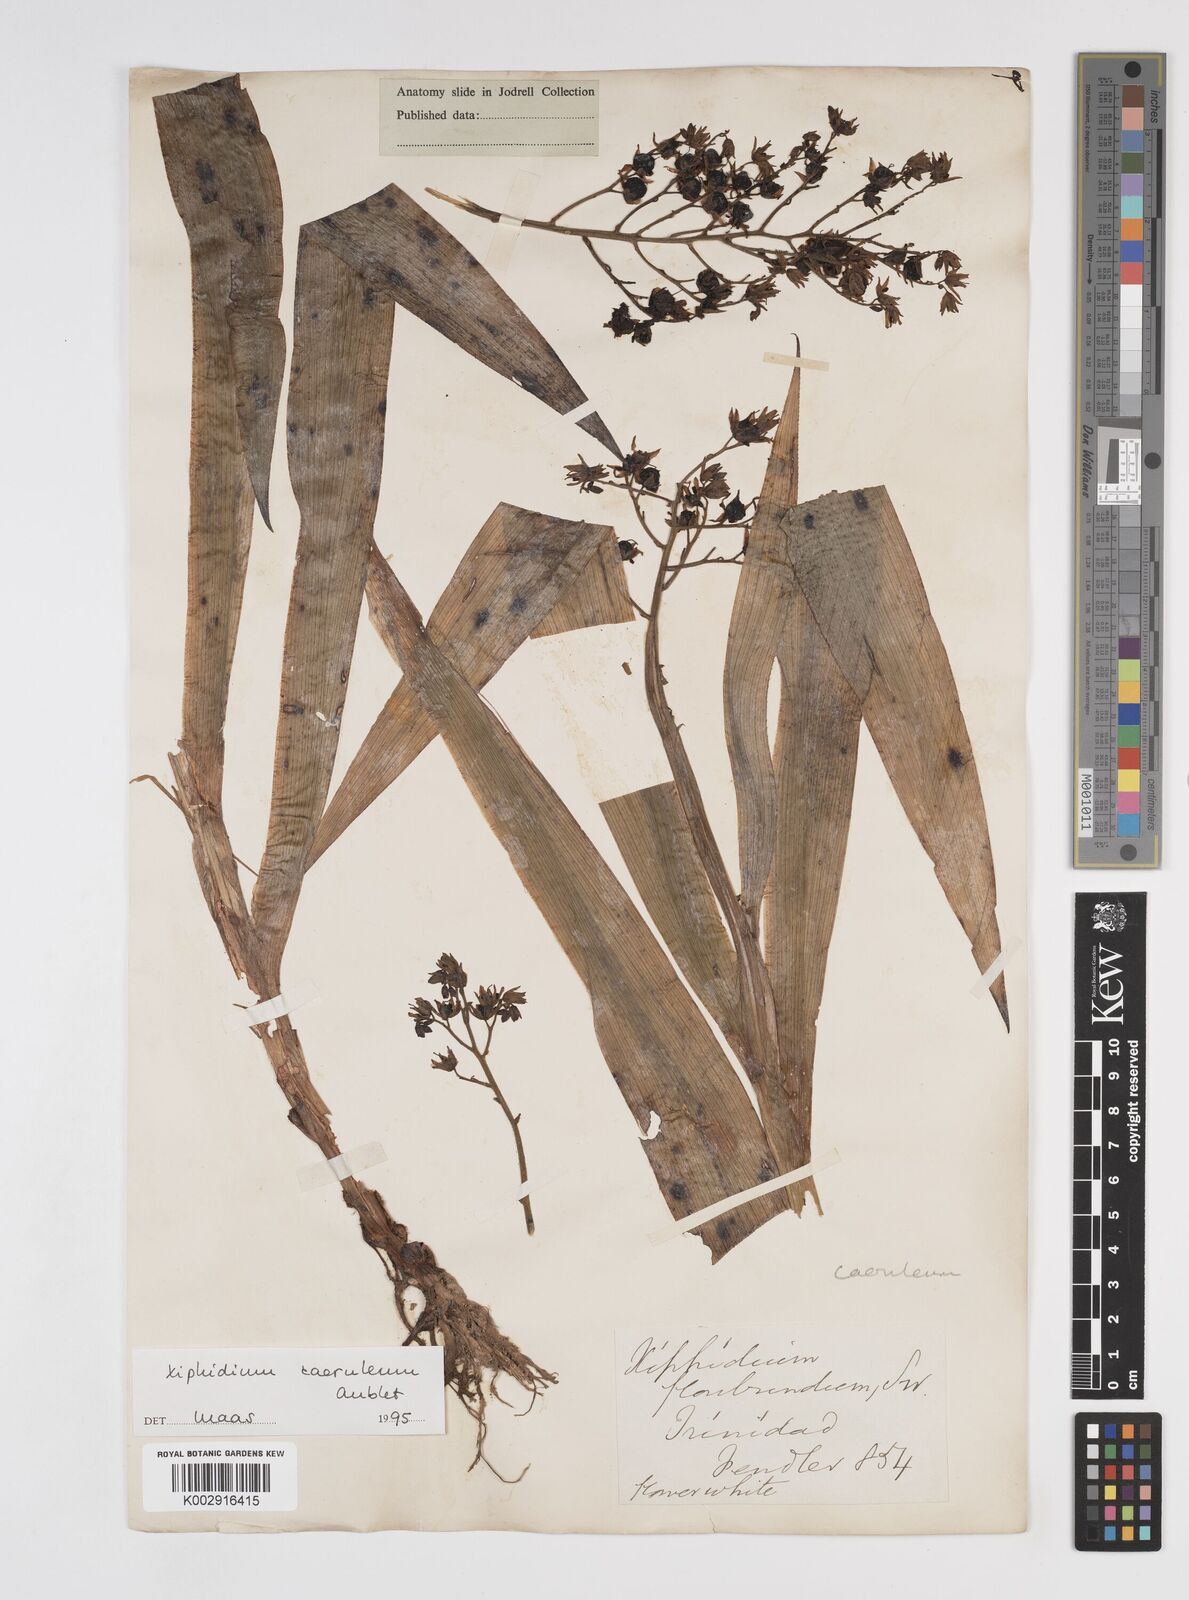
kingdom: Plantae
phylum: Tracheophyta
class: Liliopsida
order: Commelinales
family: Haemodoraceae
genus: Xiphidium
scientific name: Xiphidium caeruleum
